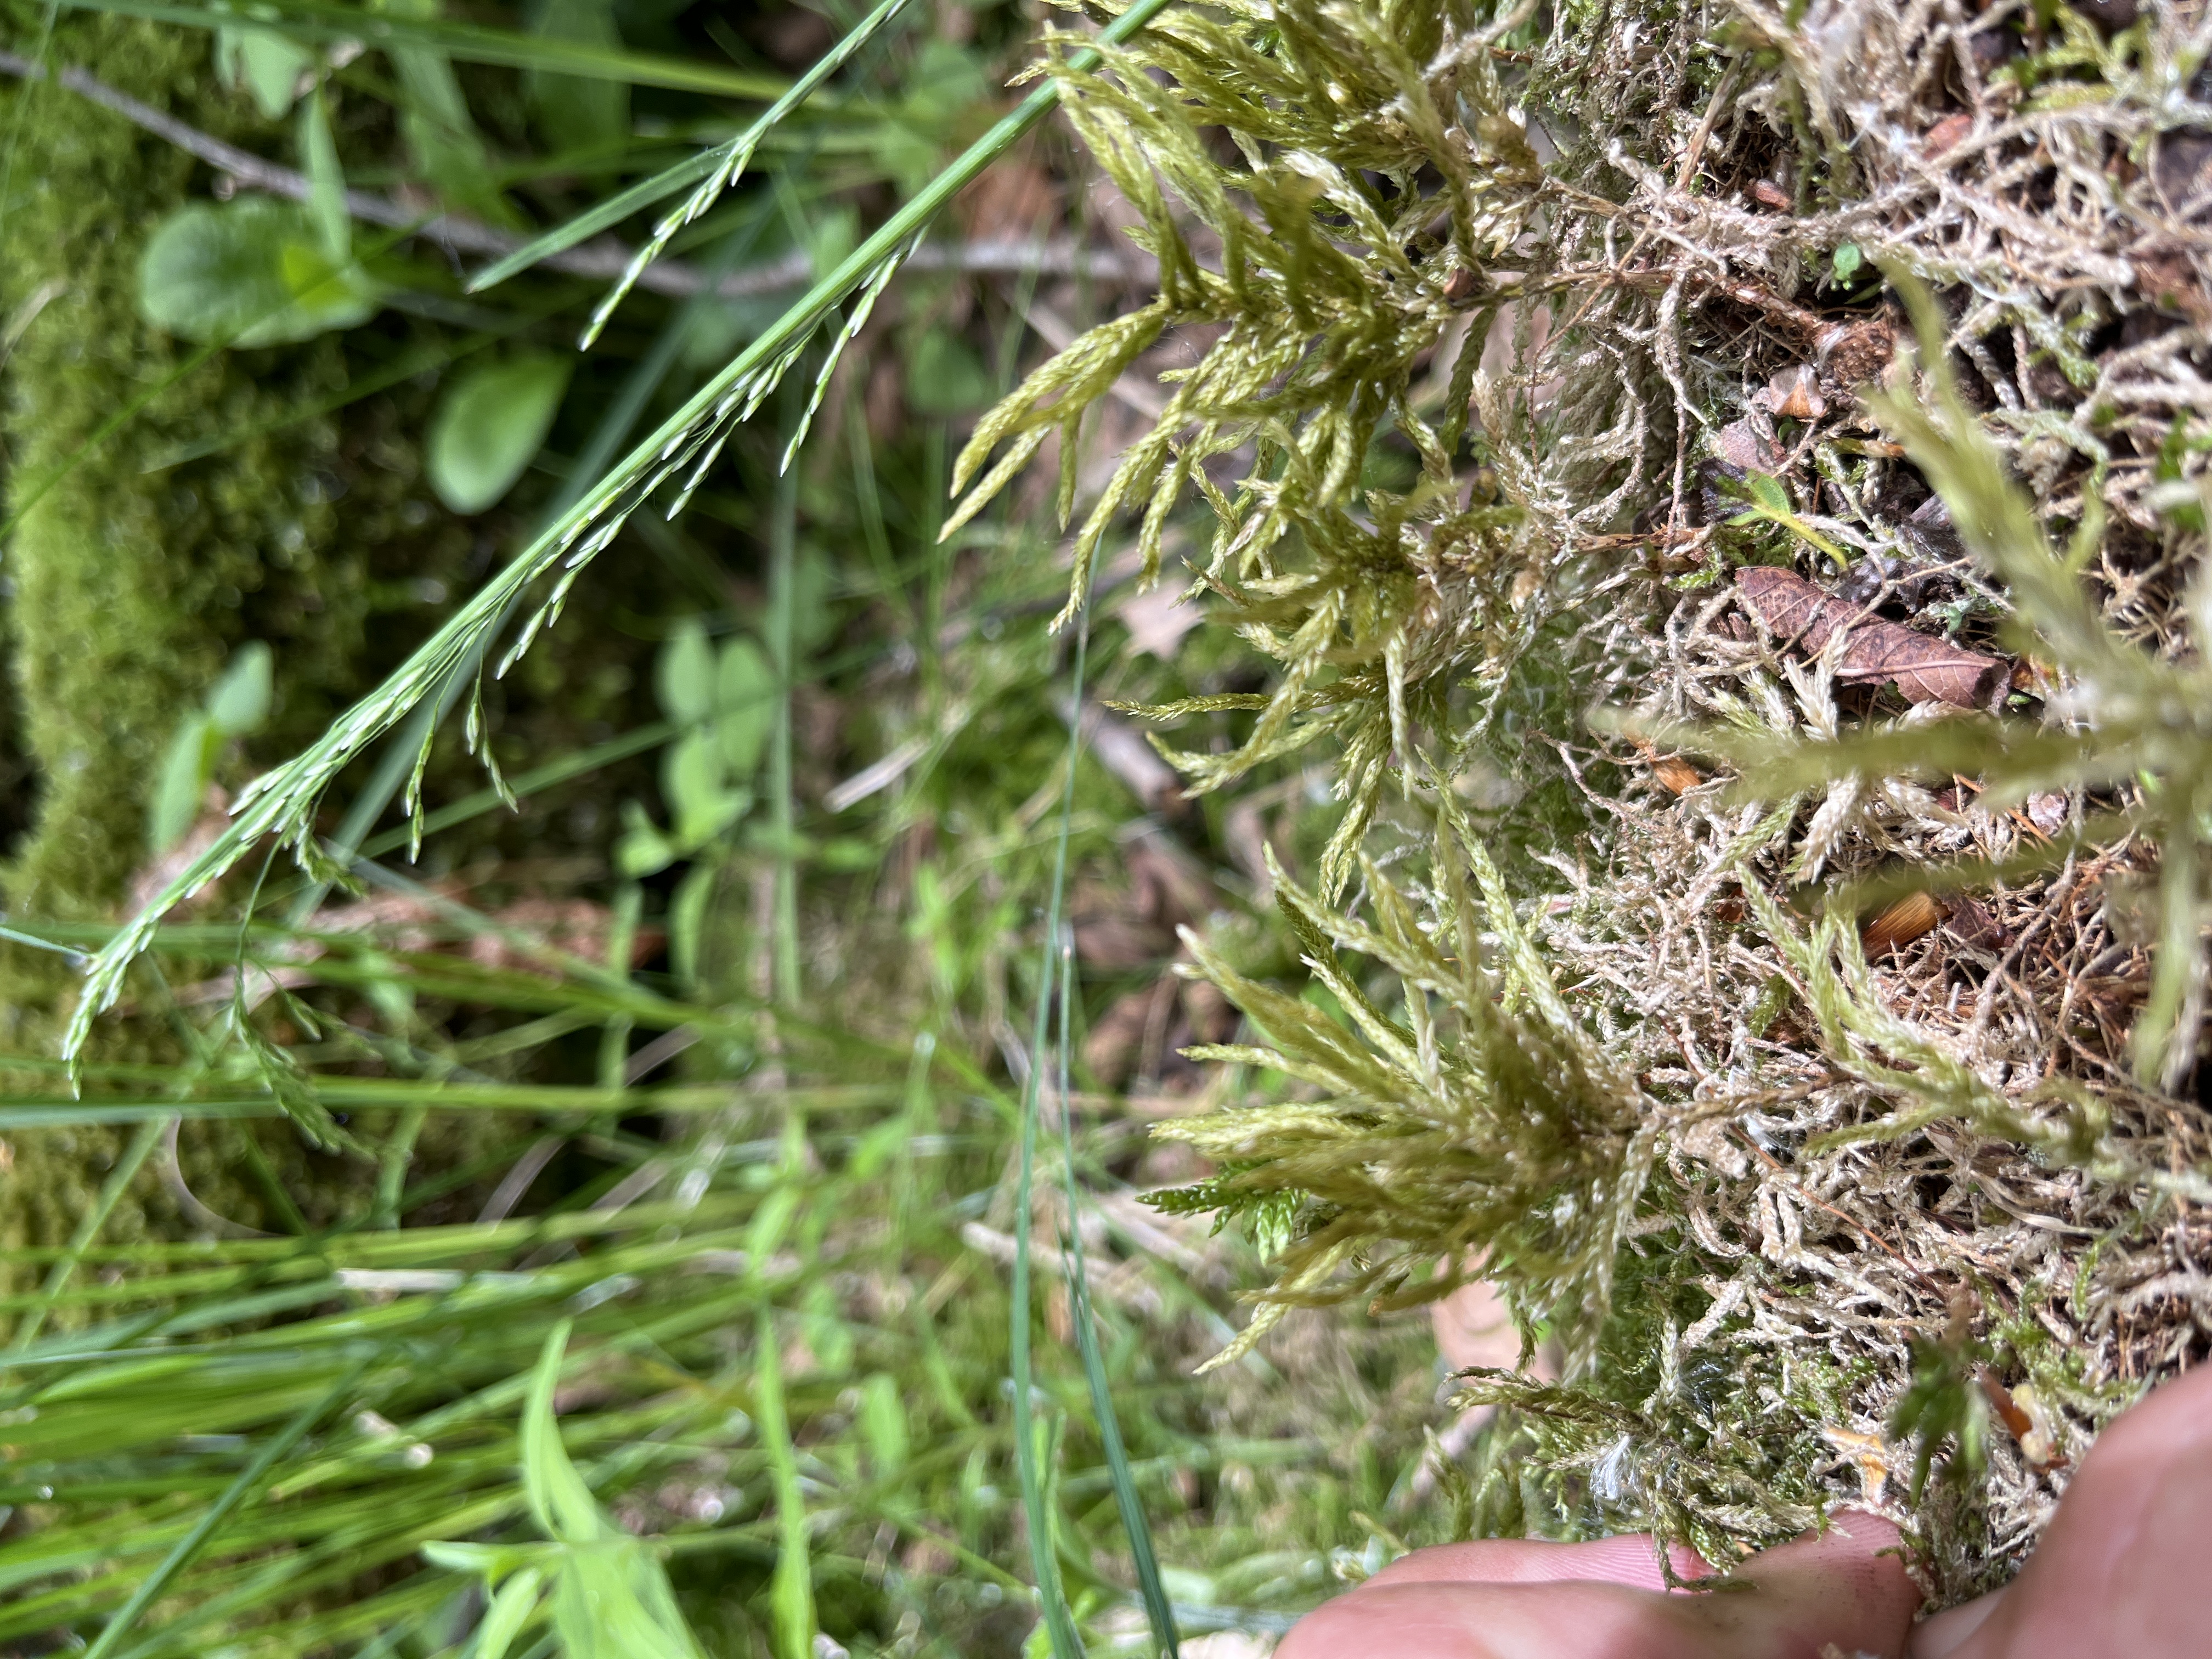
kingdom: Plantae
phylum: Bryophyta
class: Bryopsida
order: Hypnales
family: Climaciaceae
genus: Climacium
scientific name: Climacium dendroides
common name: Stor engkost
